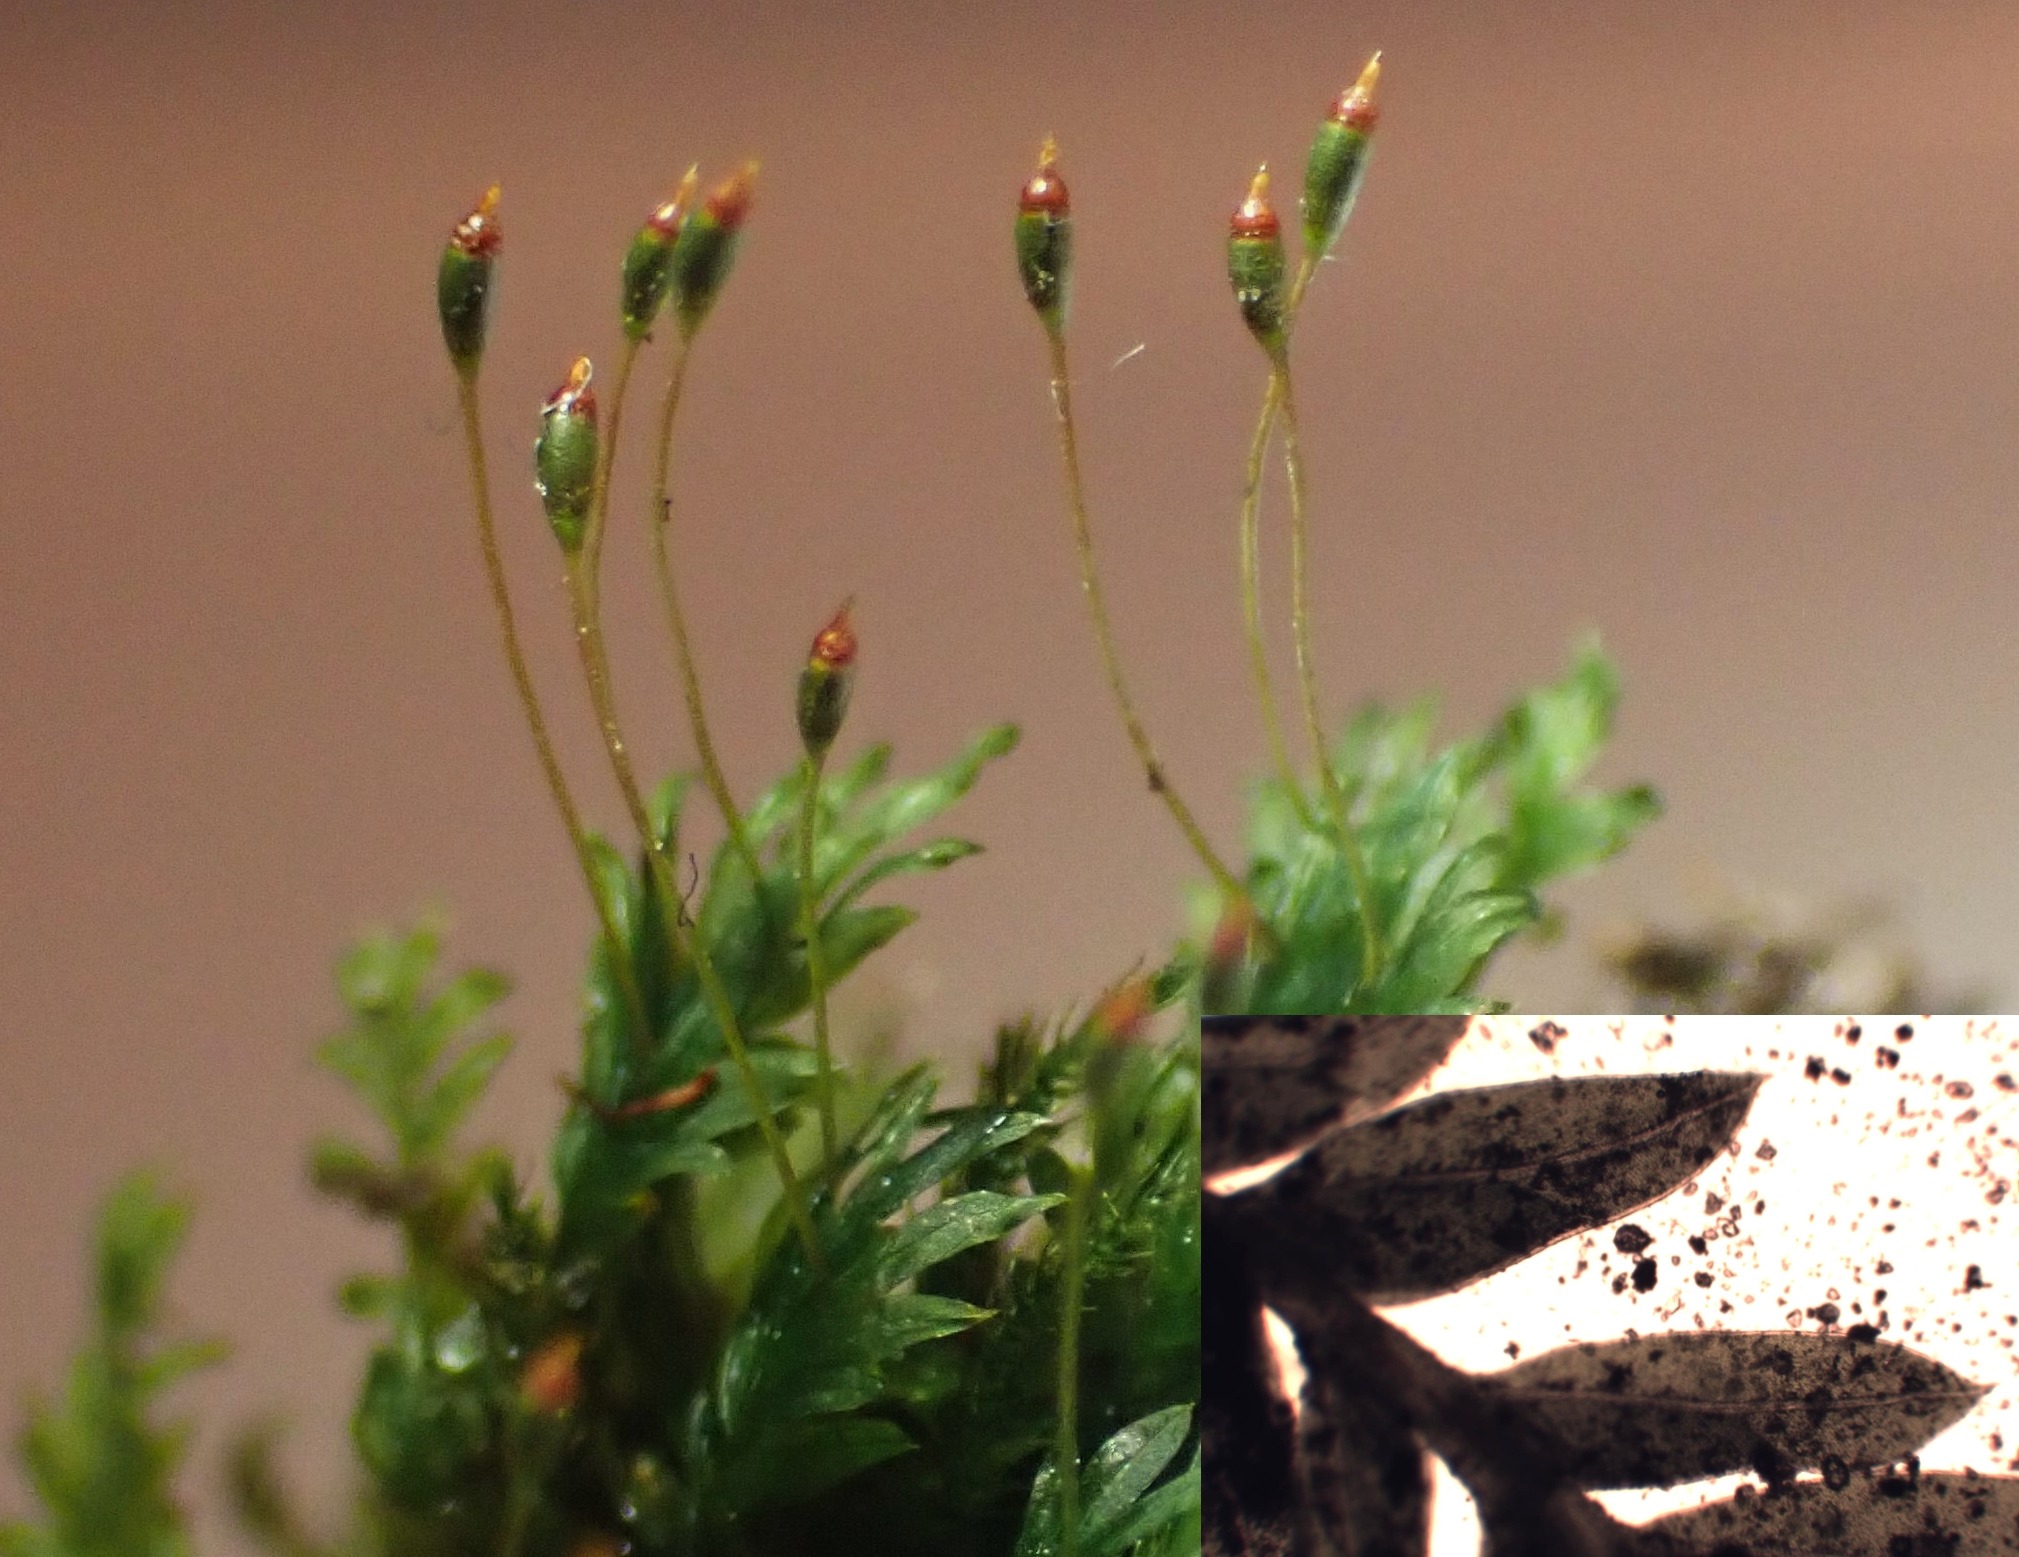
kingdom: Plantae
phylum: Bryophyta
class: Bryopsida
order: Dicranales
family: Fissidentaceae
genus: Fissidens
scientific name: Fissidens bryoides
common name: Top-rademos
